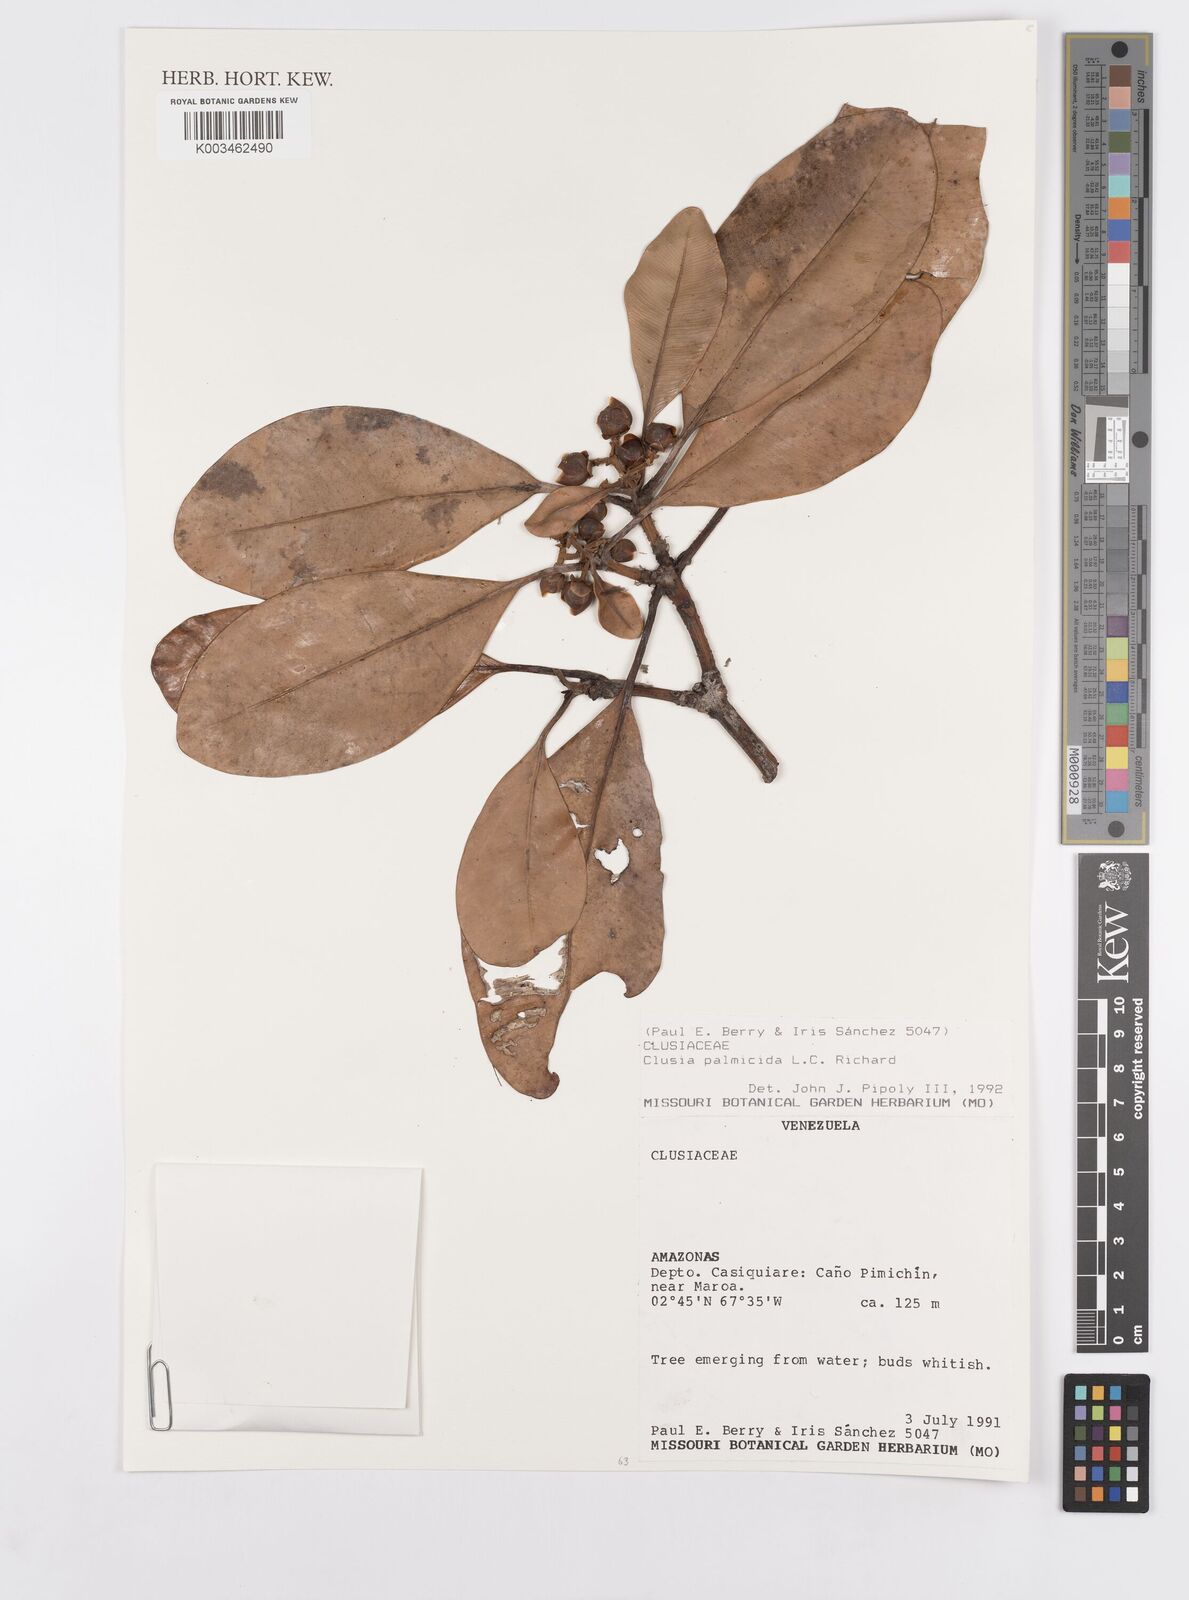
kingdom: Plantae
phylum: Tracheophyta
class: Magnoliopsida
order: Malpighiales
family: Clusiaceae
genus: Clusia
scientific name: Clusia palmicida
